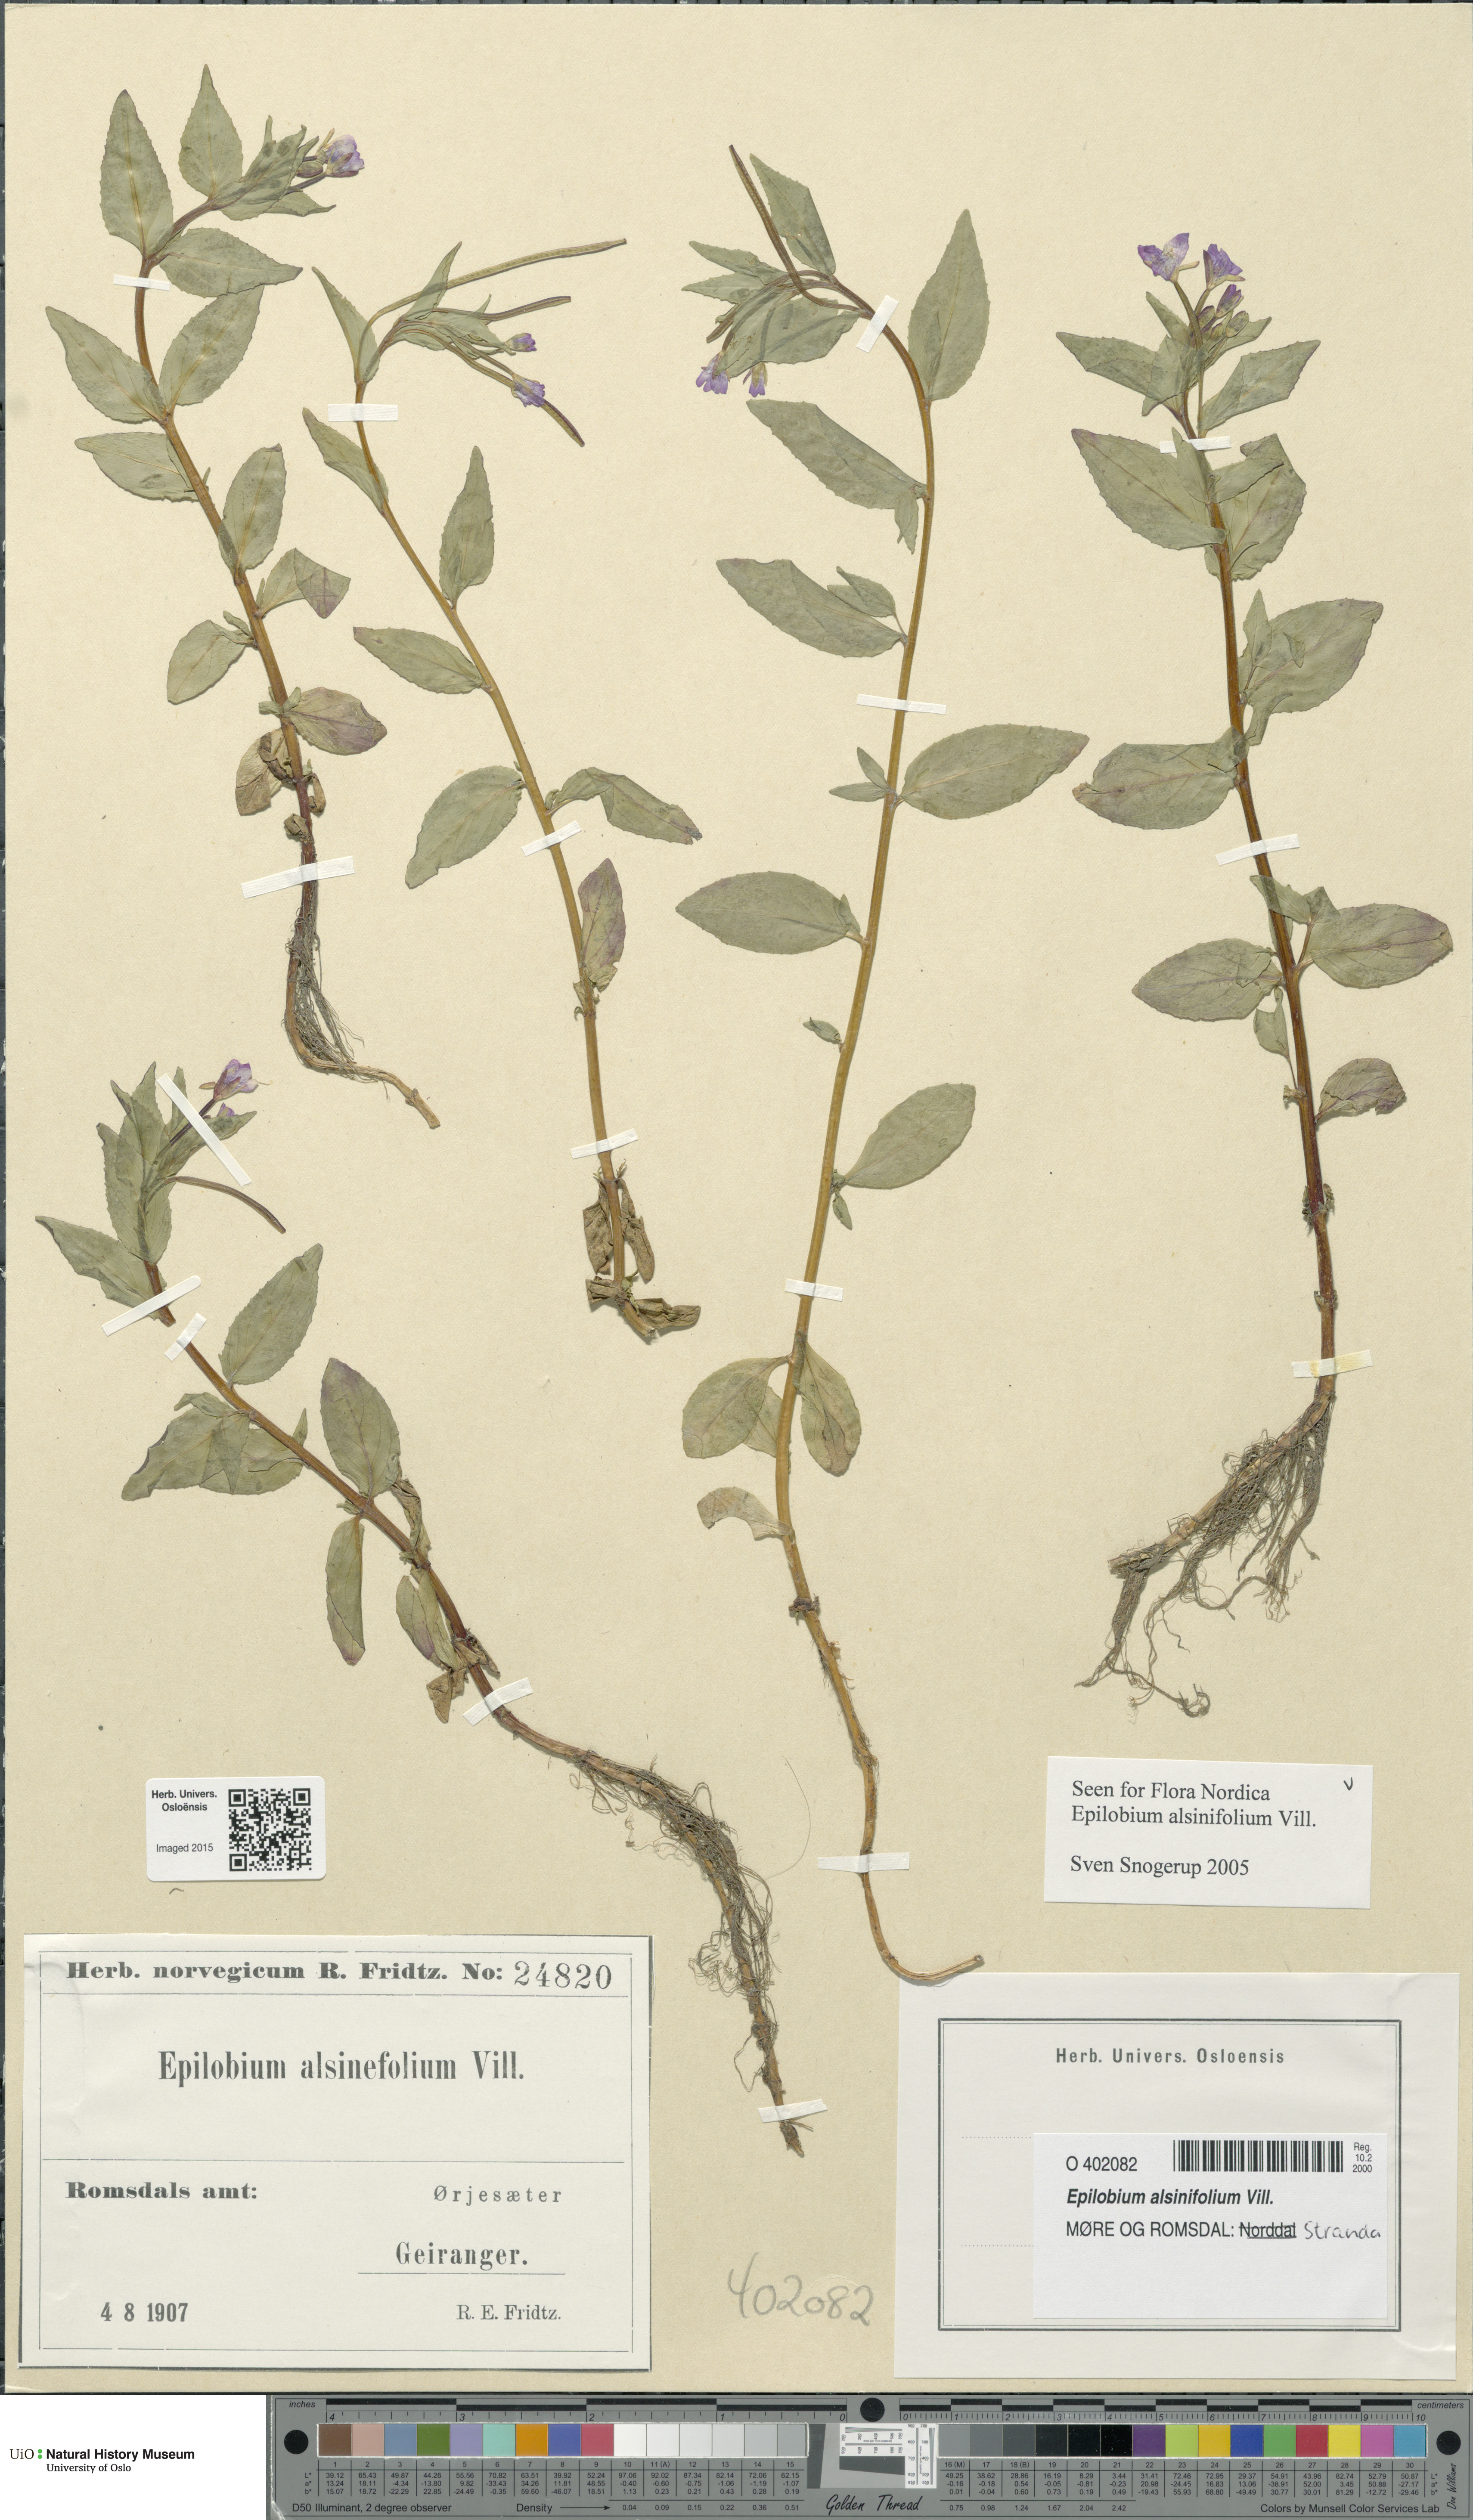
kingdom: Plantae
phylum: Tracheophyta
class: Magnoliopsida
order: Myrtales
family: Onagraceae
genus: Epilobium
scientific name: Epilobium alsinifolium
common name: Chickweed willowherb
